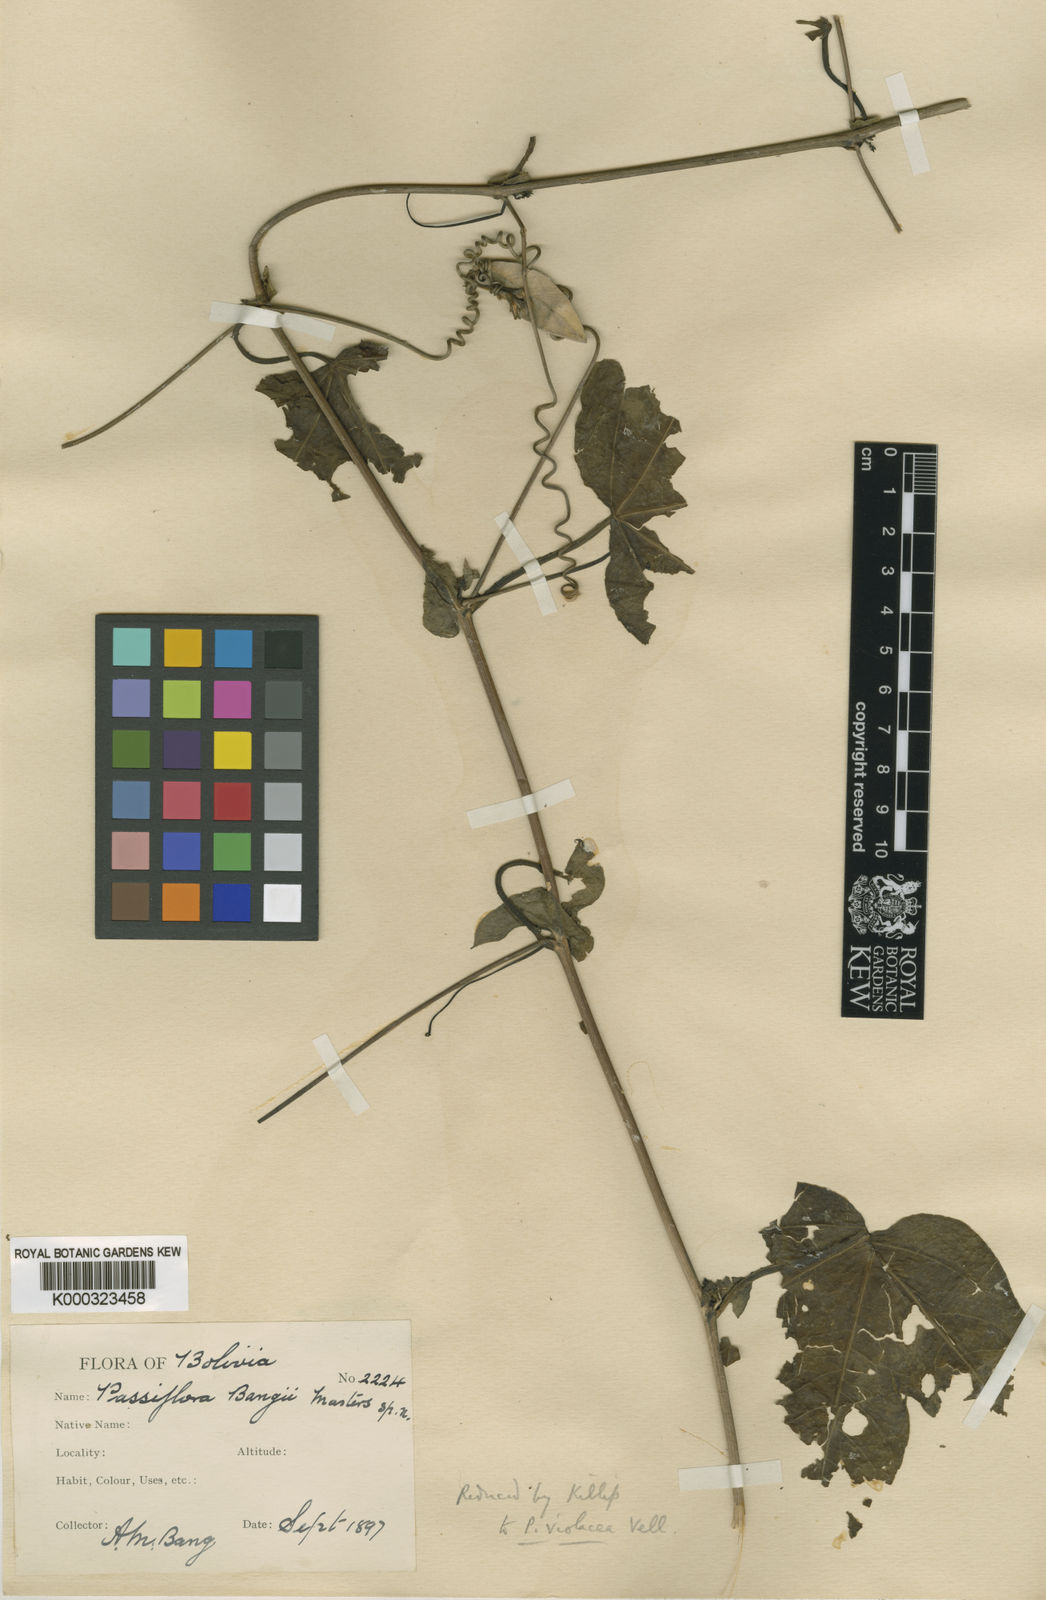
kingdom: Plantae
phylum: Tracheophyta
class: Magnoliopsida
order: Malpighiales
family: Passifloraceae
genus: Passiflora
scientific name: Passiflora amethystina
